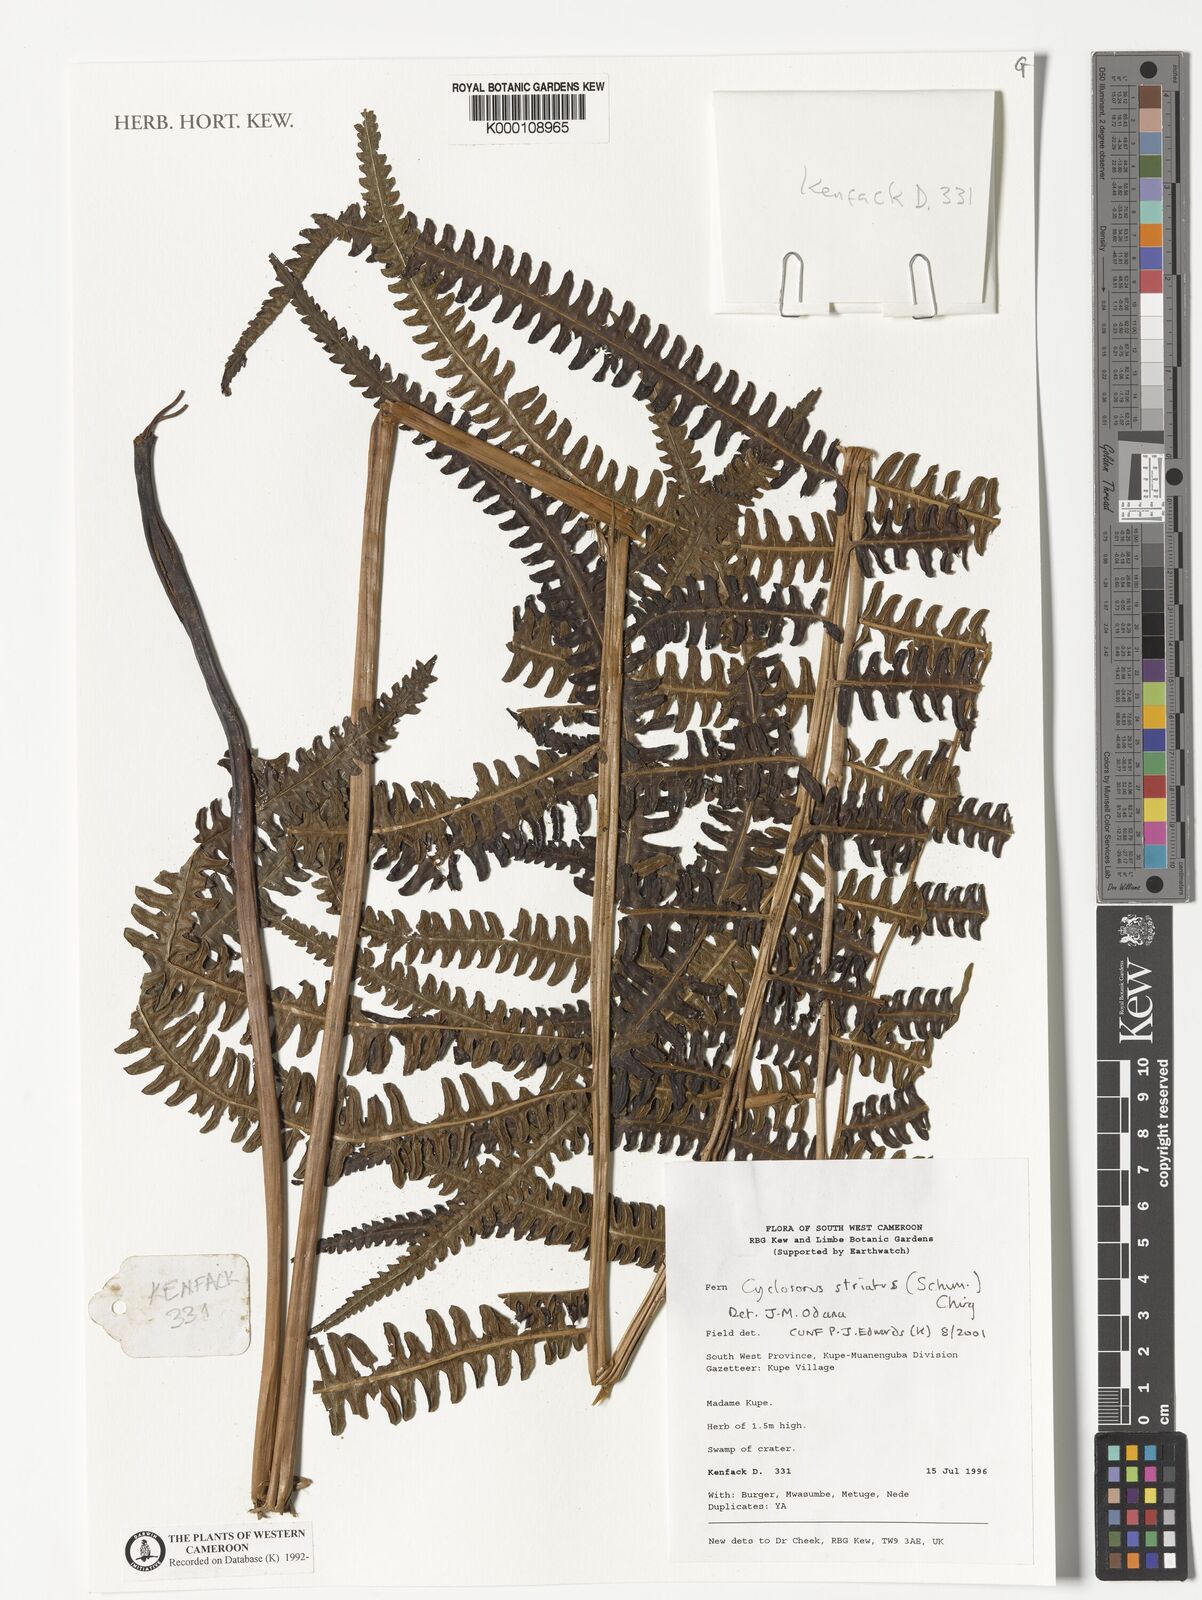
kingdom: Plantae
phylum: Tracheophyta
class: Polypodiopsida
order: Polypodiales
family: Thelypteridaceae
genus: Cyclosorus
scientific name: Cyclosorus striatus
